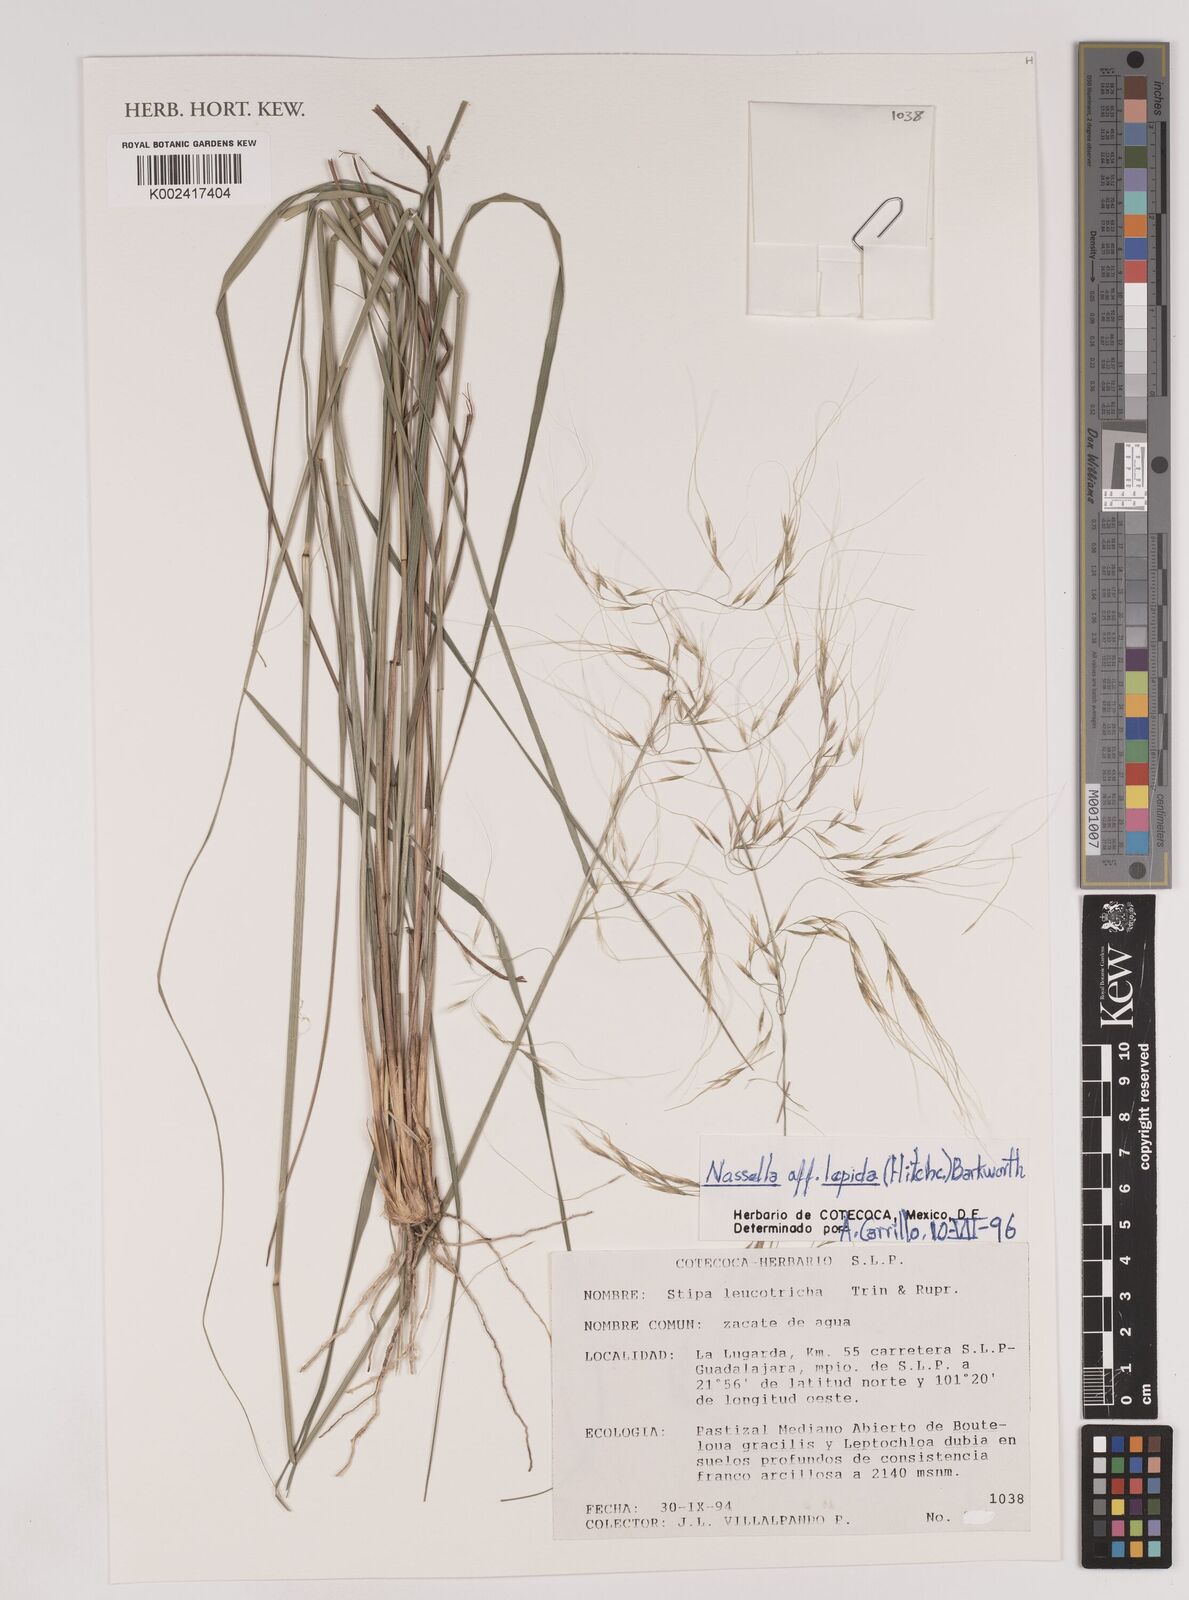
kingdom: Plantae
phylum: Tracheophyta
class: Liliopsida
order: Poales
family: Poaceae
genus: Nassella
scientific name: Nassella lepida
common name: Foothill needlegrass
